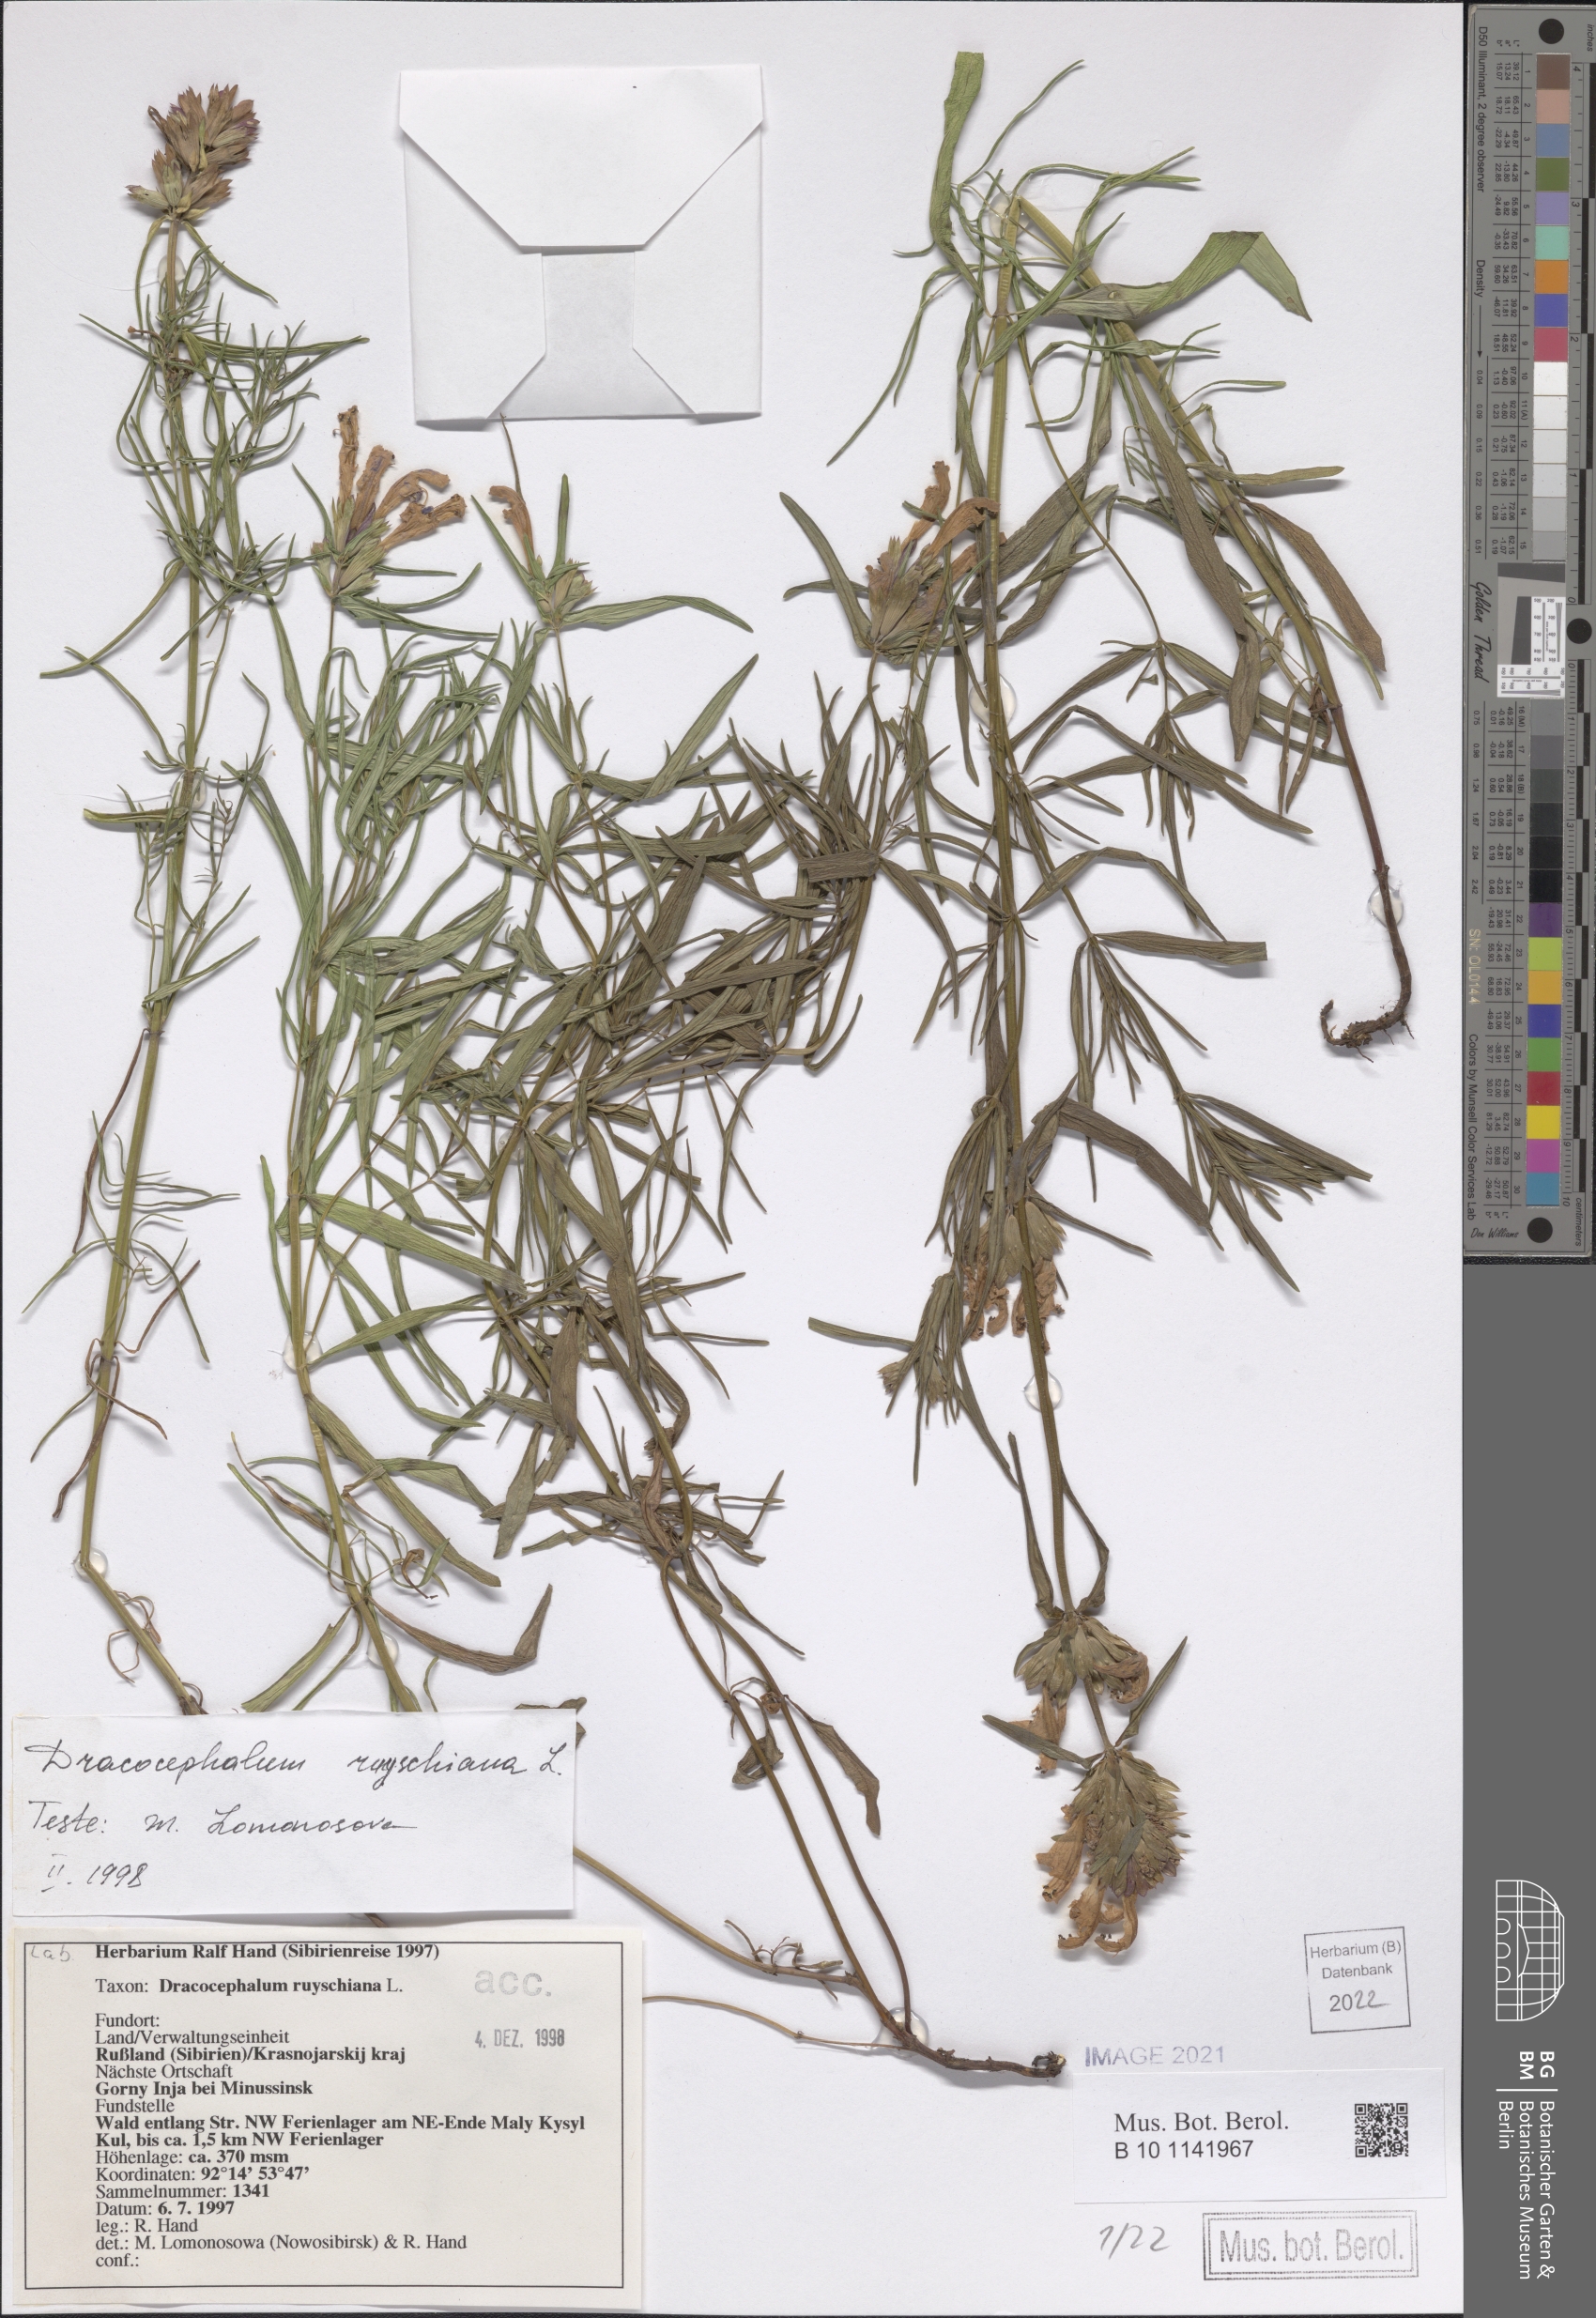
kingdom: Plantae
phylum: Tracheophyta
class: Magnoliopsida
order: Lamiales
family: Lamiaceae
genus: Dracocephalum
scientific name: Dracocephalum ruyschiana
